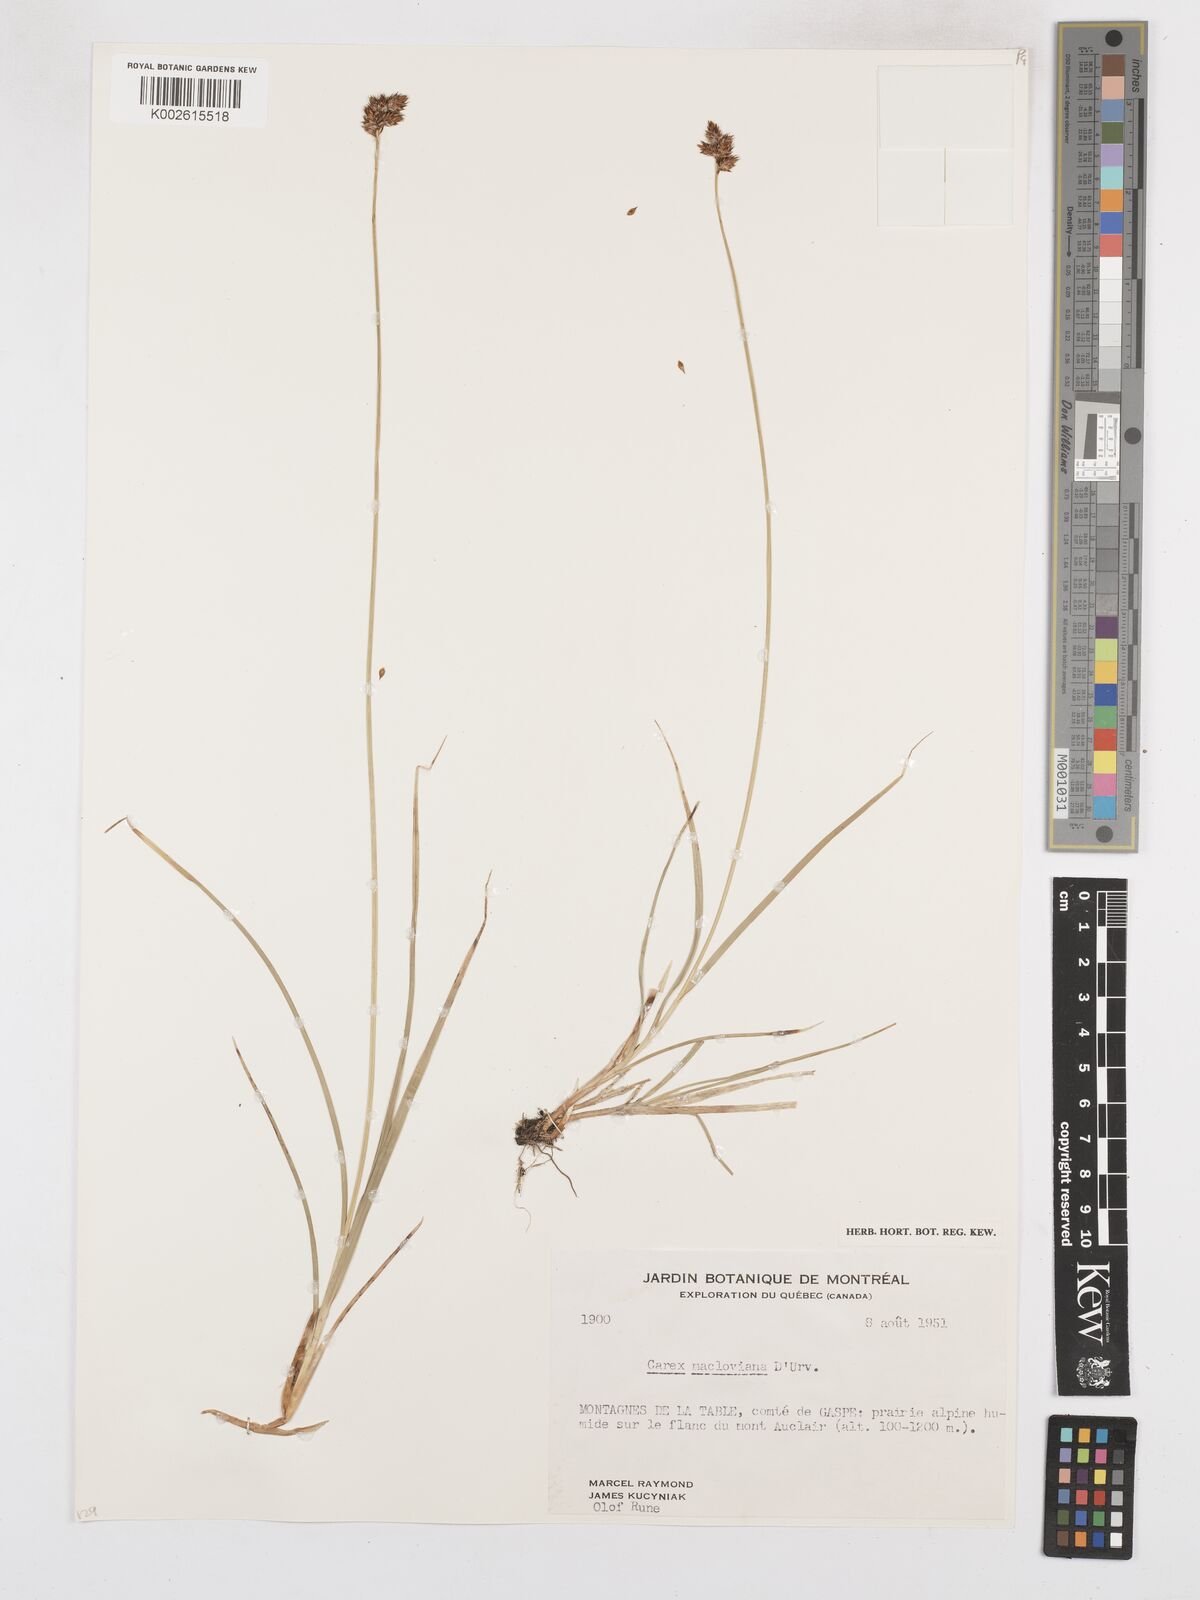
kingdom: Plantae
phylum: Tracheophyta
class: Liliopsida
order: Poales
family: Cyperaceae
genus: Carex
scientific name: Carex macloviana
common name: Falkland island sedge
